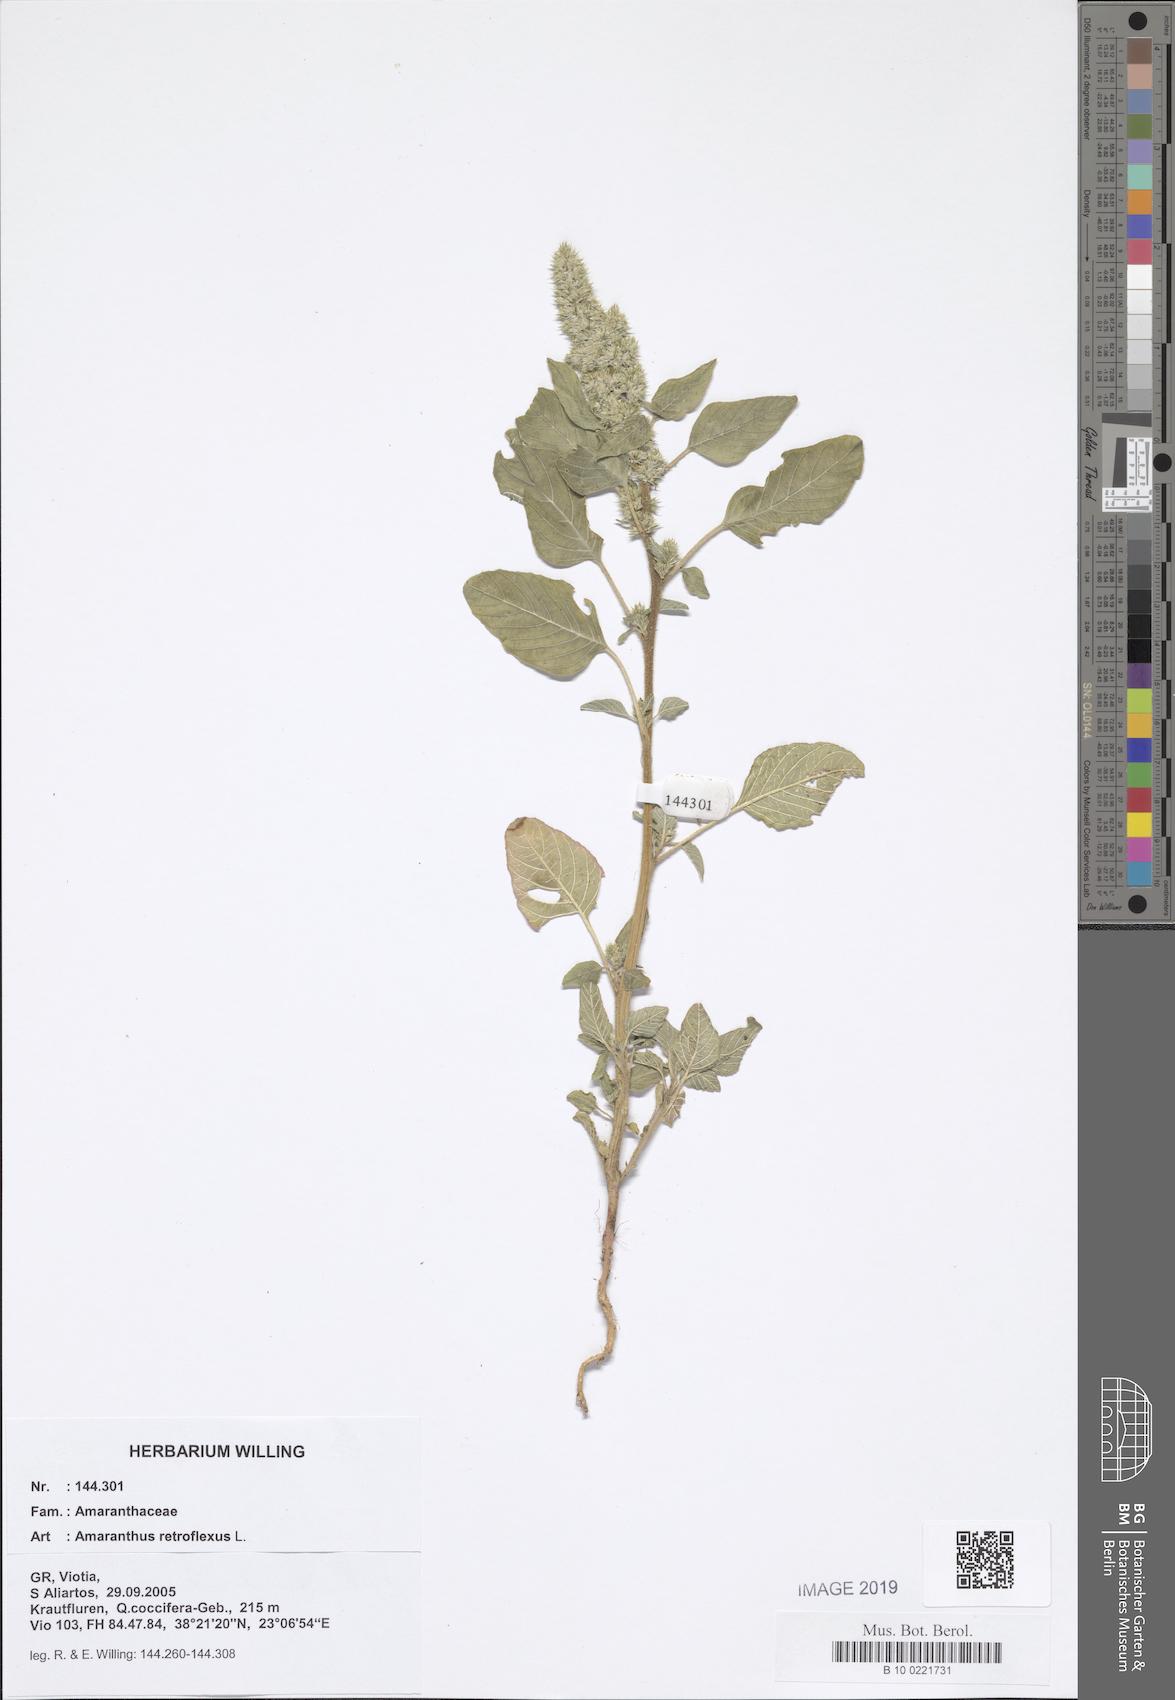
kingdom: Plantae
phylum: Tracheophyta
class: Magnoliopsida
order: Caryophyllales
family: Amaranthaceae
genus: Amaranthus
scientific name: Amaranthus retroflexus
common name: Redroot amaranth
